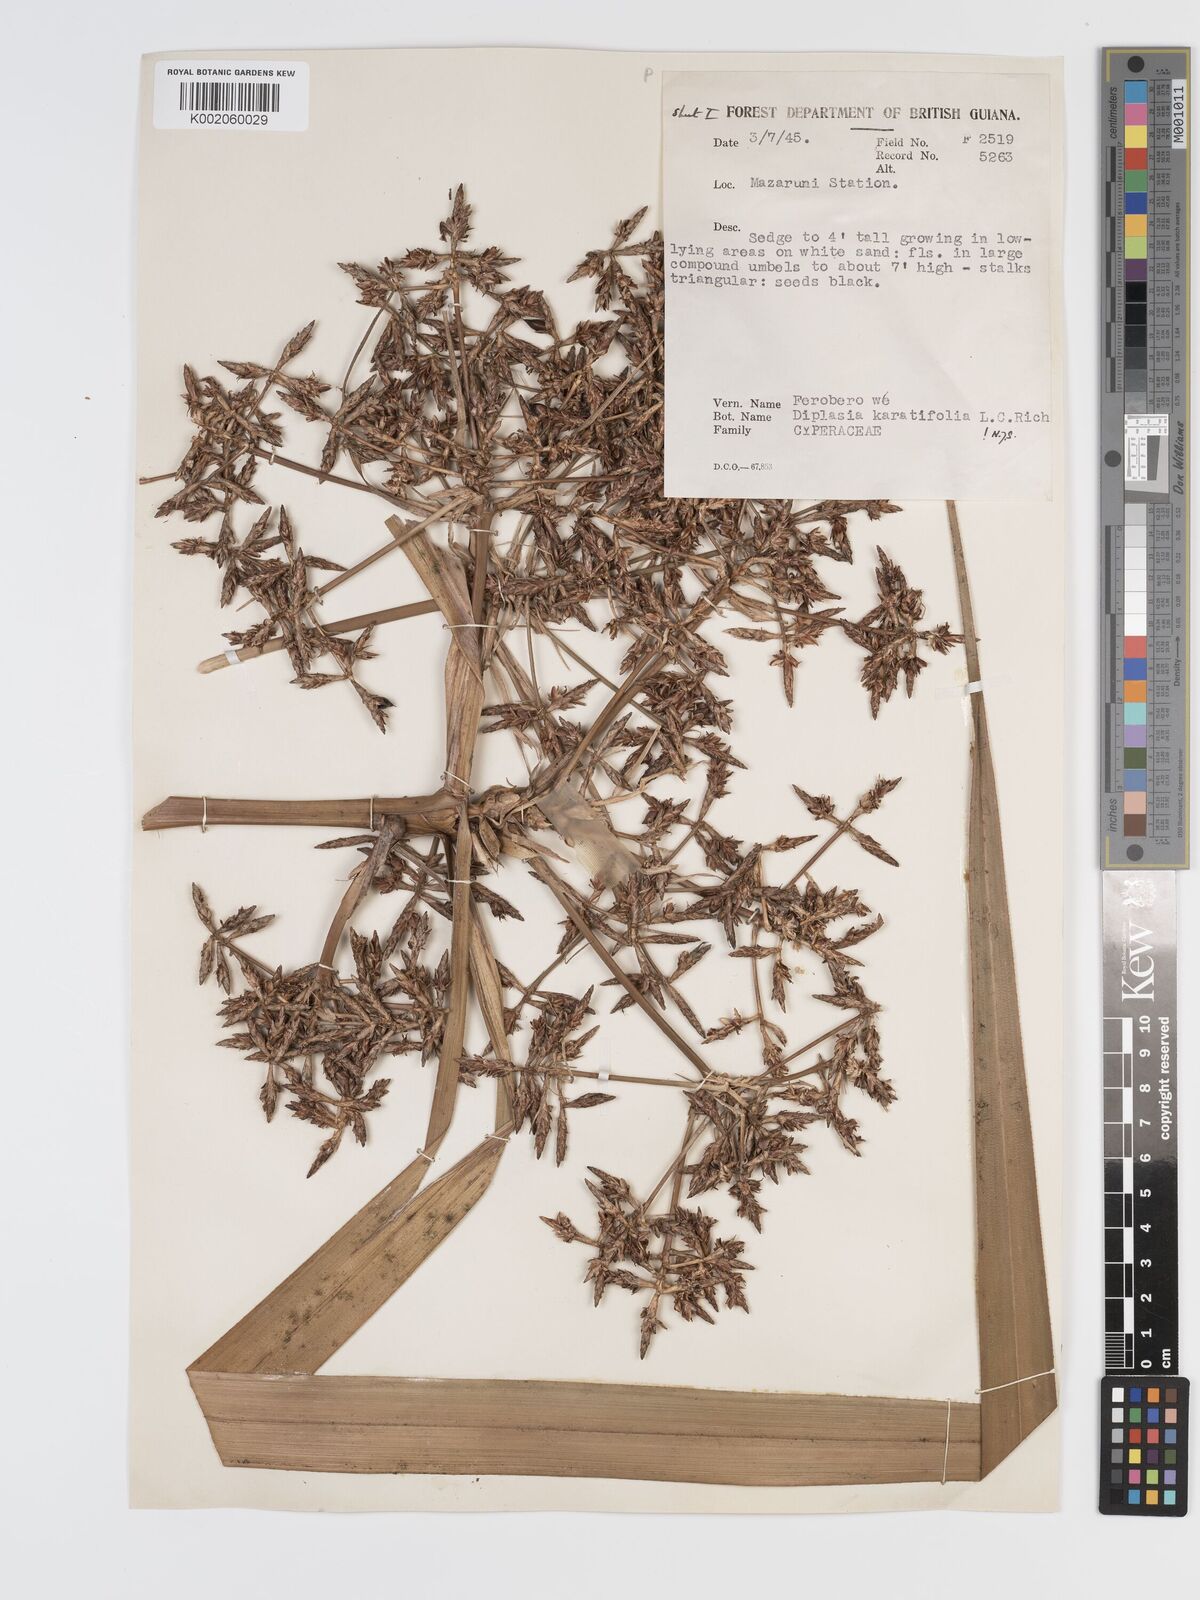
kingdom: Plantae
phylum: Tracheophyta
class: Liliopsida
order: Poales
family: Cyperaceae
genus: Diplasia
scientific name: Diplasia karatifolia
